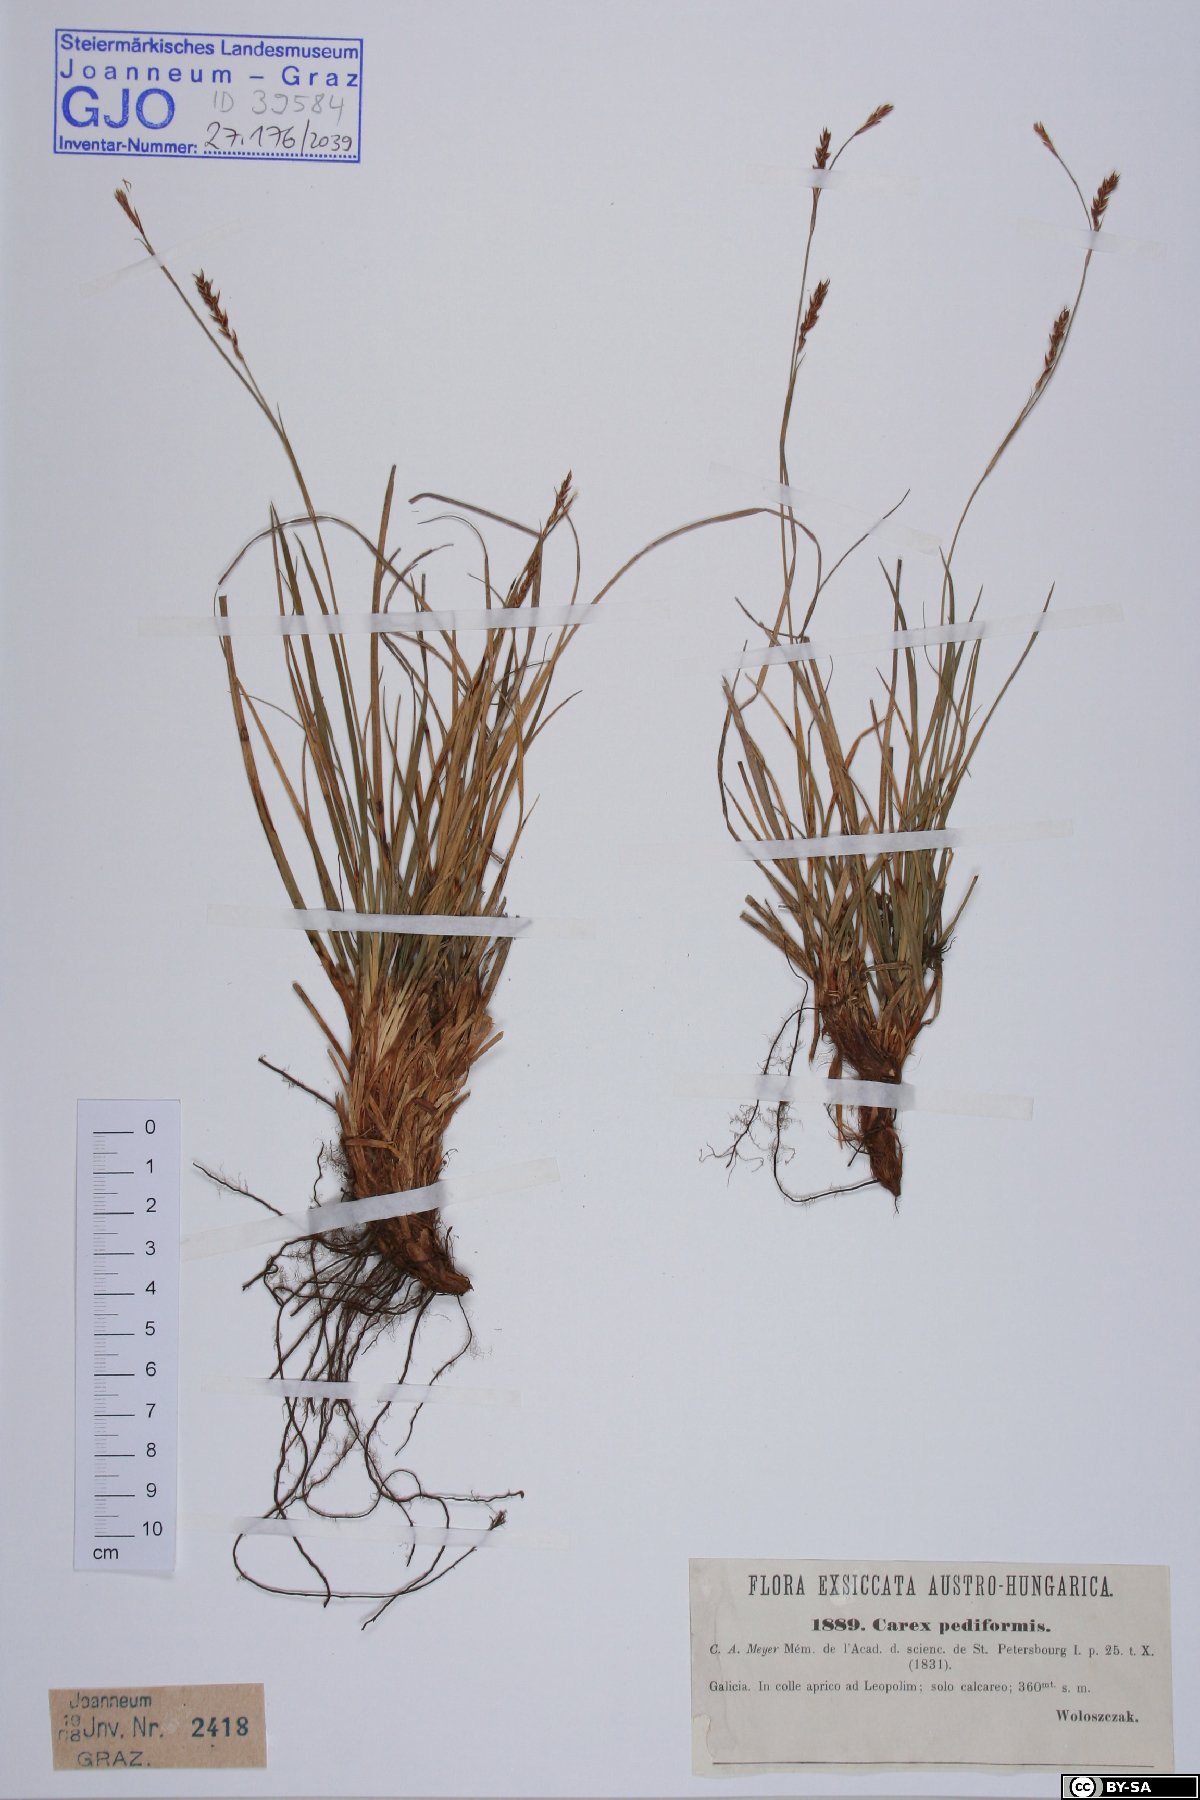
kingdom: Plantae
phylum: Tracheophyta
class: Liliopsida
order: Poales
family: Cyperaceae
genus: Carex
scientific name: Carex pediformis
